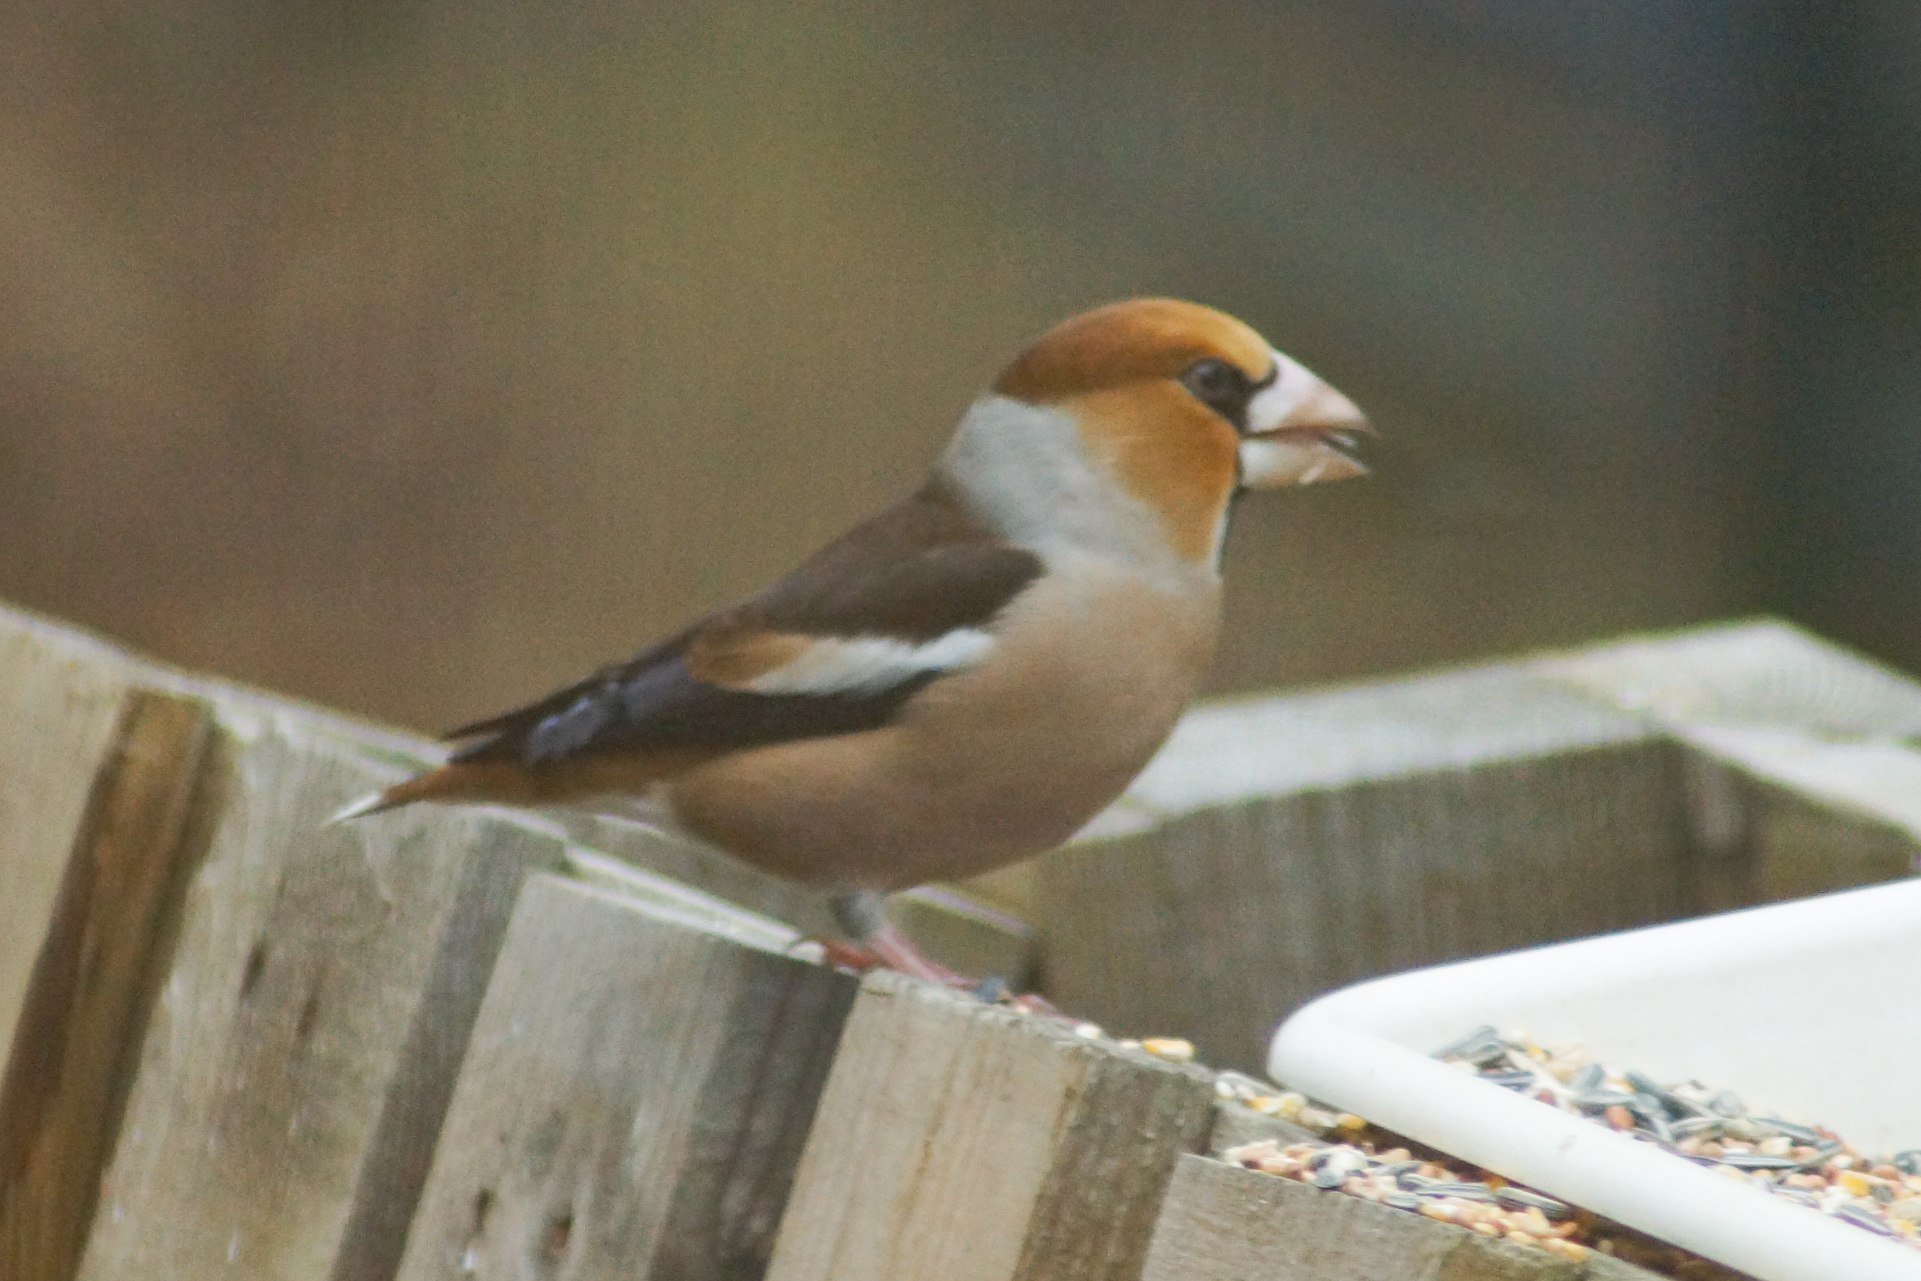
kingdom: Animalia
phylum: Chordata
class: Aves
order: Passeriformes
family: Fringillidae
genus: Coccothraustes
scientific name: Coccothraustes coccothraustes
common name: Kernebider
